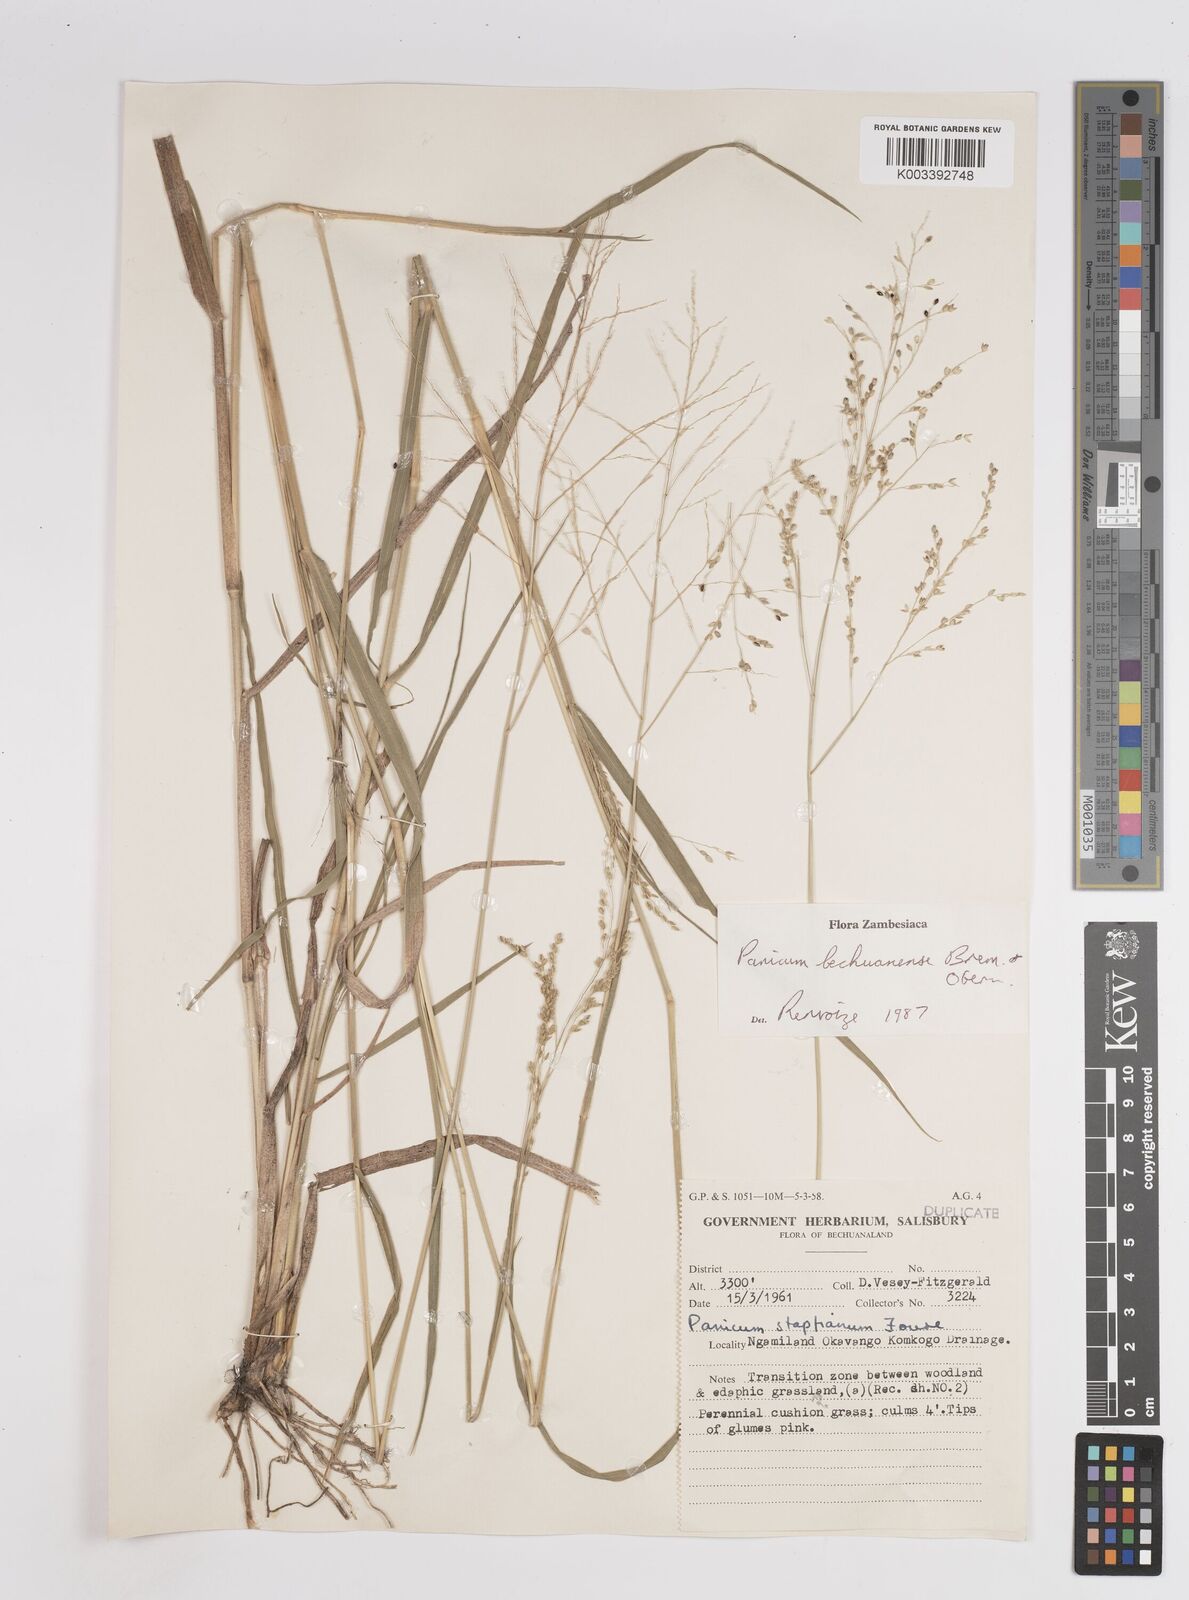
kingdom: Plantae
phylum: Tracheophyta
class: Liliopsida
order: Poales
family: Poaceae
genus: Panicum
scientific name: Panicum bechuanense
